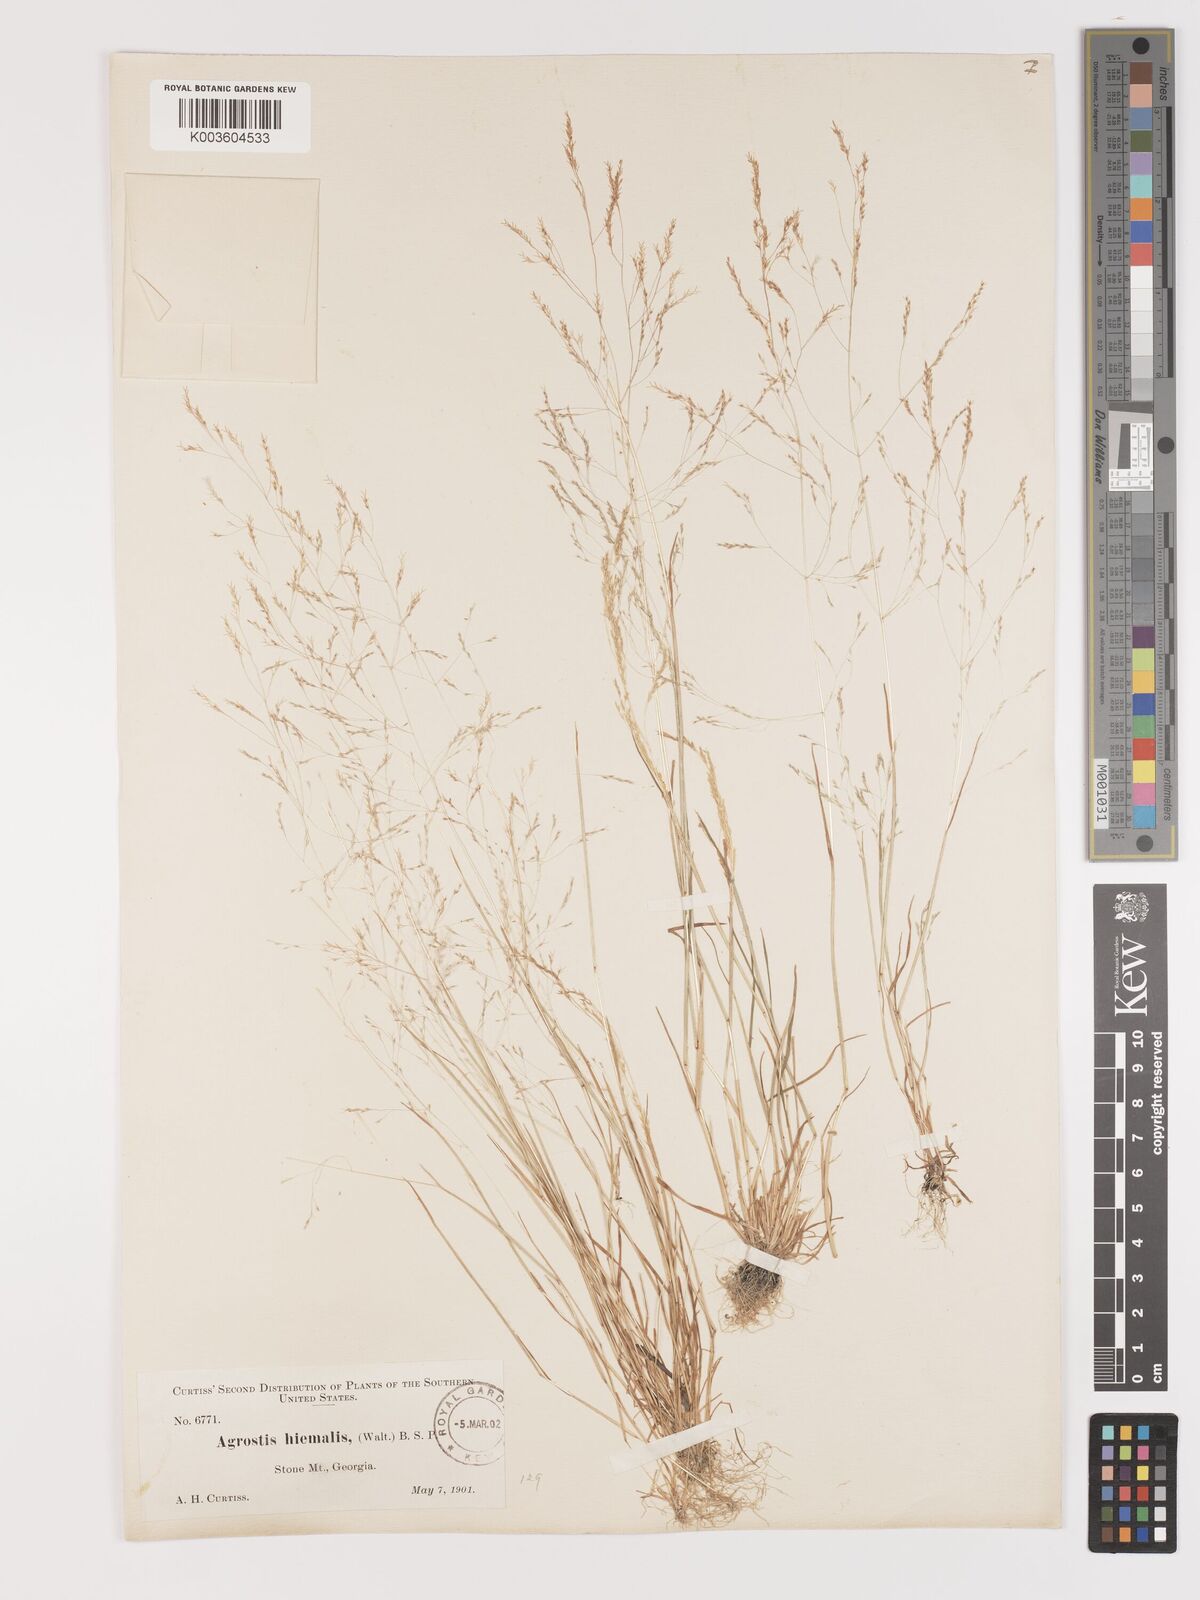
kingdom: Plantae
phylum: Tracheophyta
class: Liliopsida
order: Poales
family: Poaceae
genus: Agrostis
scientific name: Agrostis hyemalis
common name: Small bent
